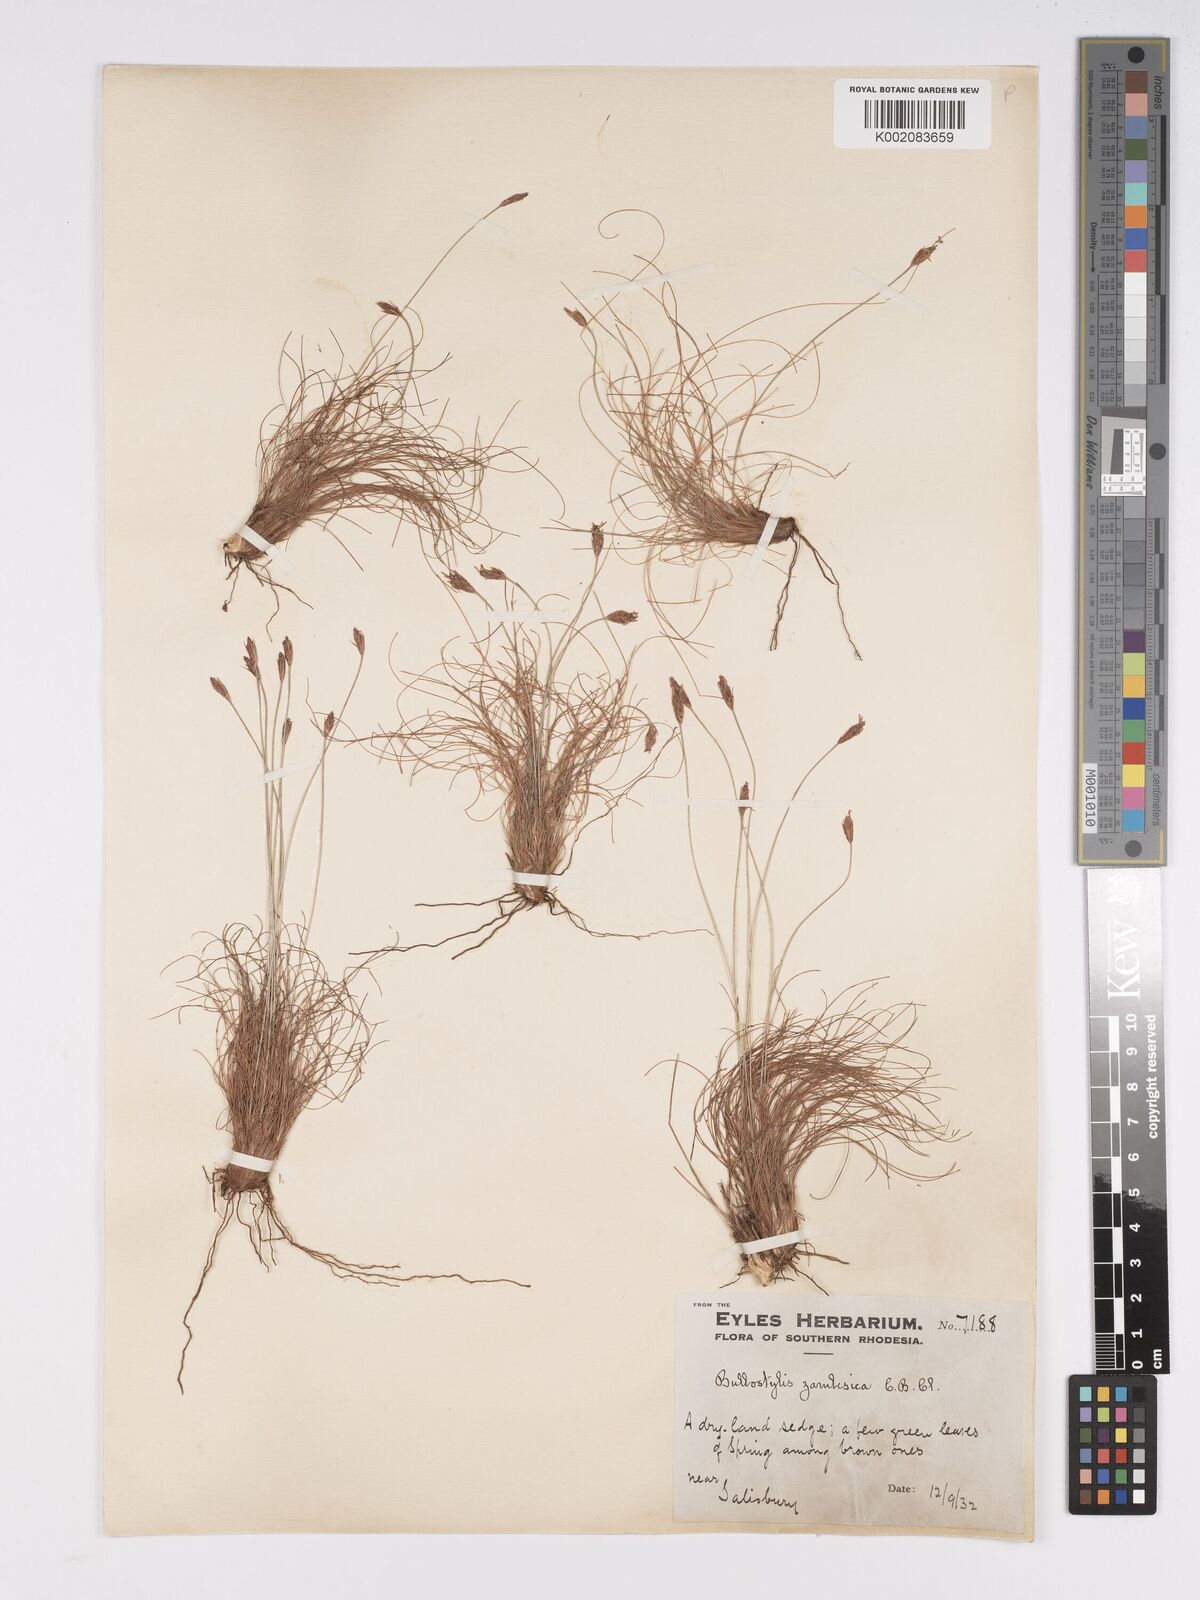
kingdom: Plantae
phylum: Tracheophyta
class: Liliopsida
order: Poales
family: Cyperaceae
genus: Bulbostylis
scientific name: Bulbostylis macra
